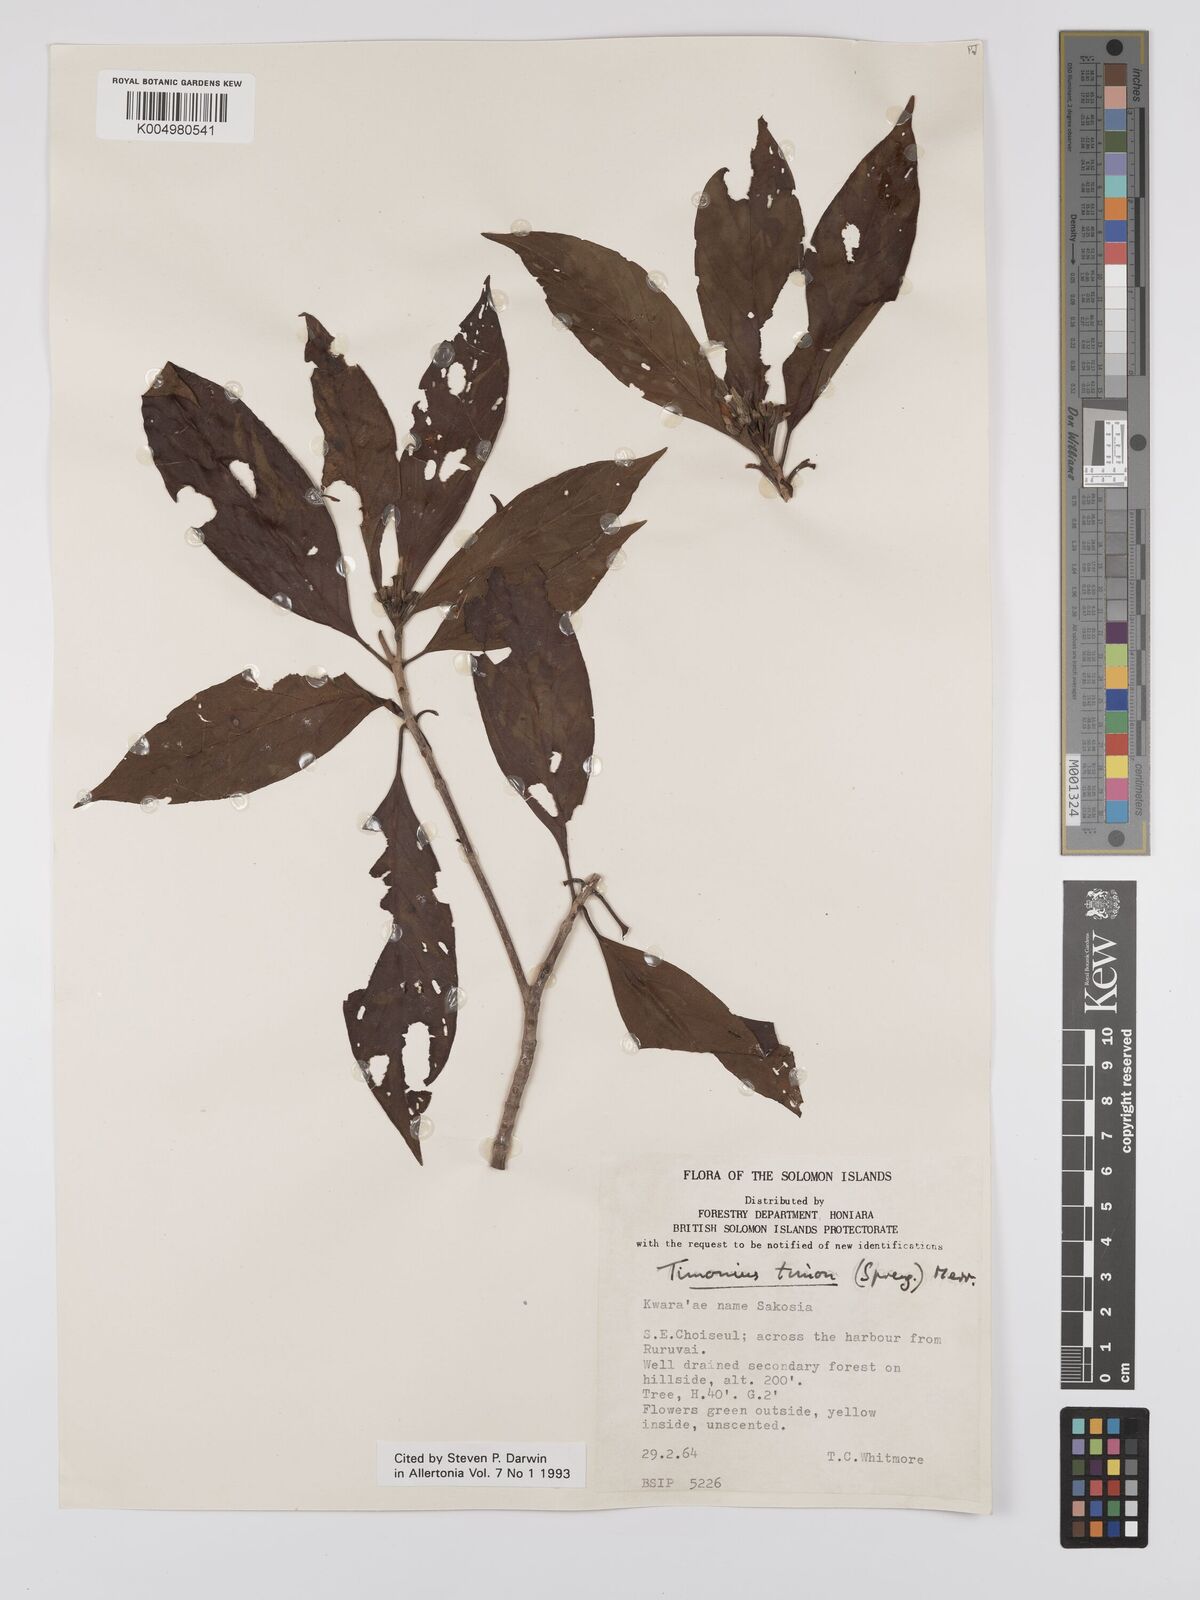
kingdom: Plantae
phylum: Tracheophyta
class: Magnoliopsida
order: Gentianales
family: Rubiaceae
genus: Timonius
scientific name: Timonius timon
